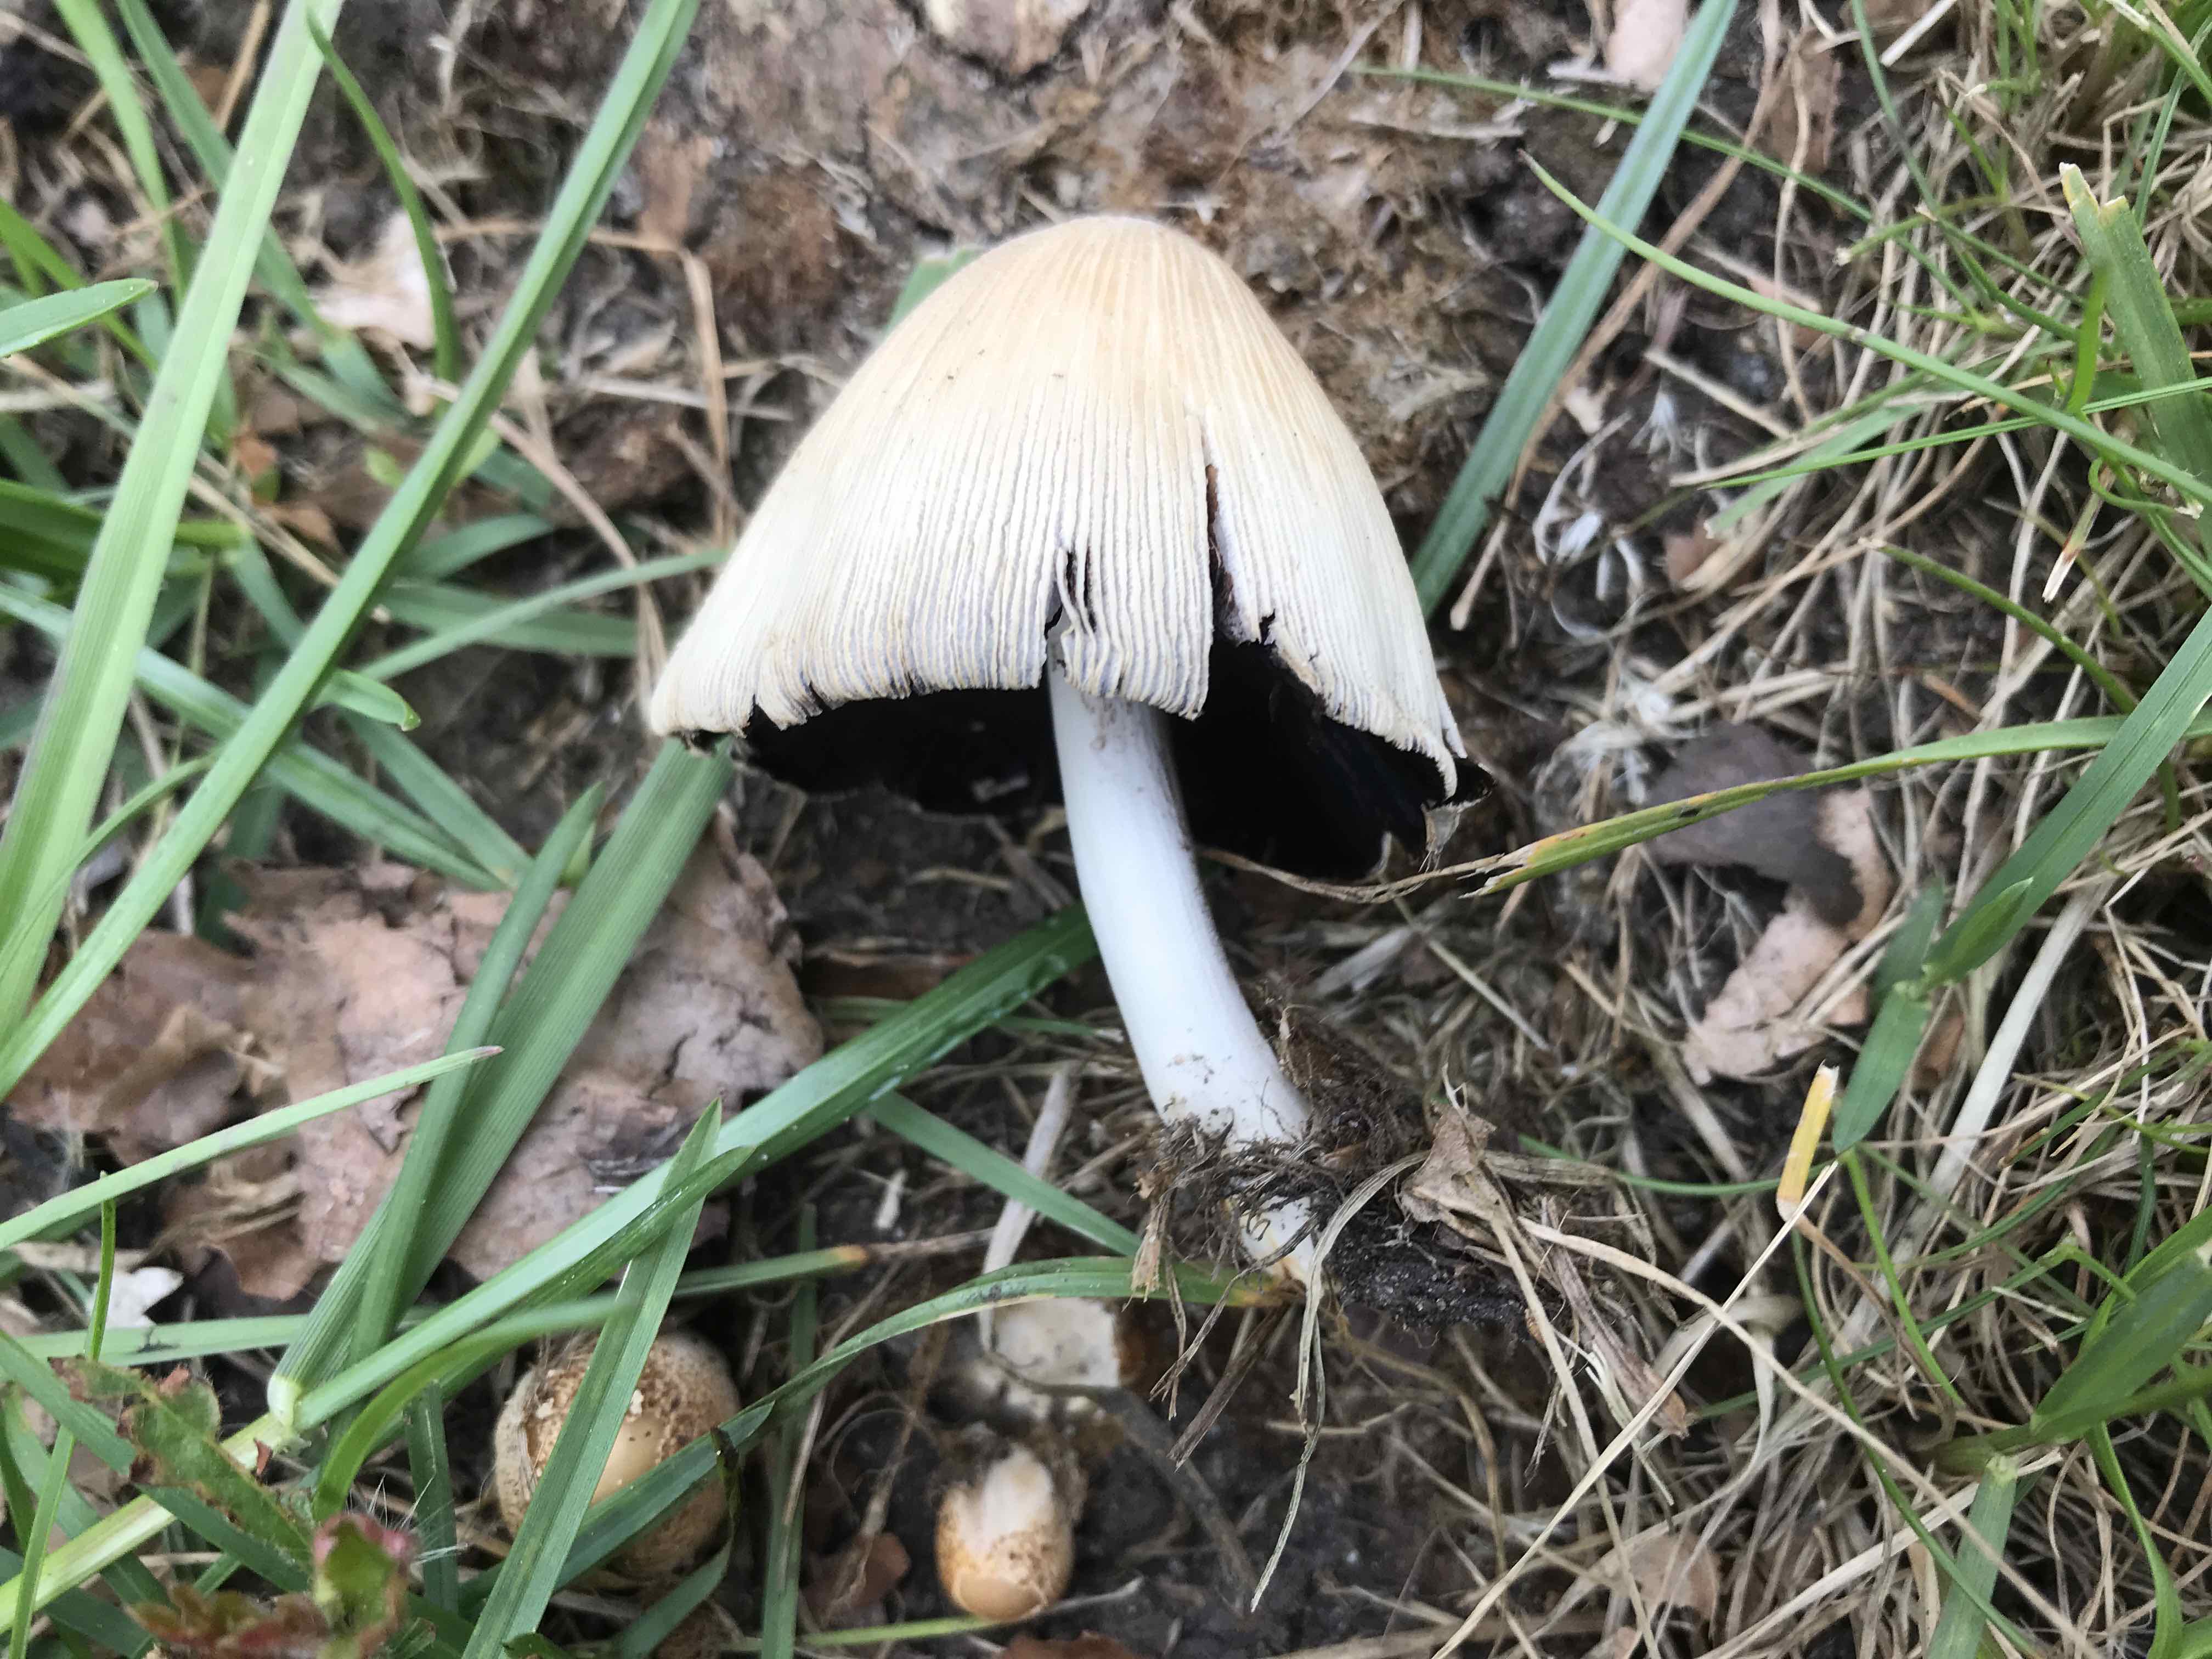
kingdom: Fungi
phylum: Basidiomycota
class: Agaricomycetes
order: Agaricales
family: Psathyrellaceae
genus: Coprinellus
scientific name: Coprinellus
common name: blækhat
